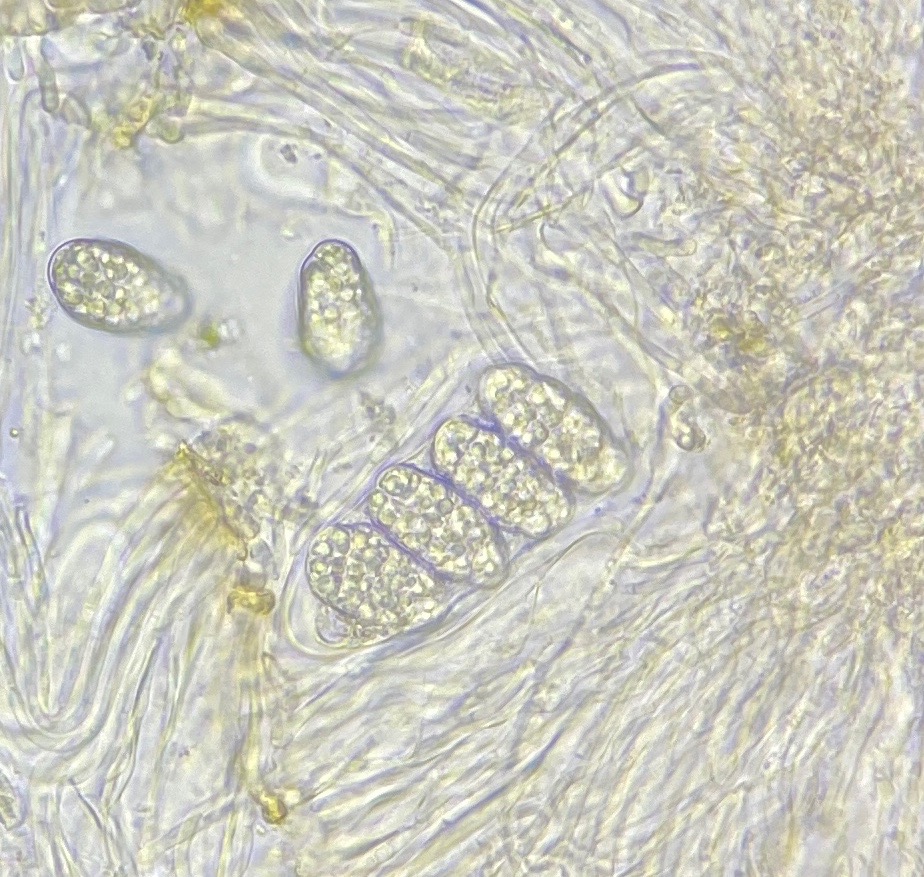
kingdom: Fungi
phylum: Ascomycota
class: Lecanoromycetes
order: Peltigerales
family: Collemataceae
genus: Enchylium
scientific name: Enchylium limosum
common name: dynd-bævrelav
